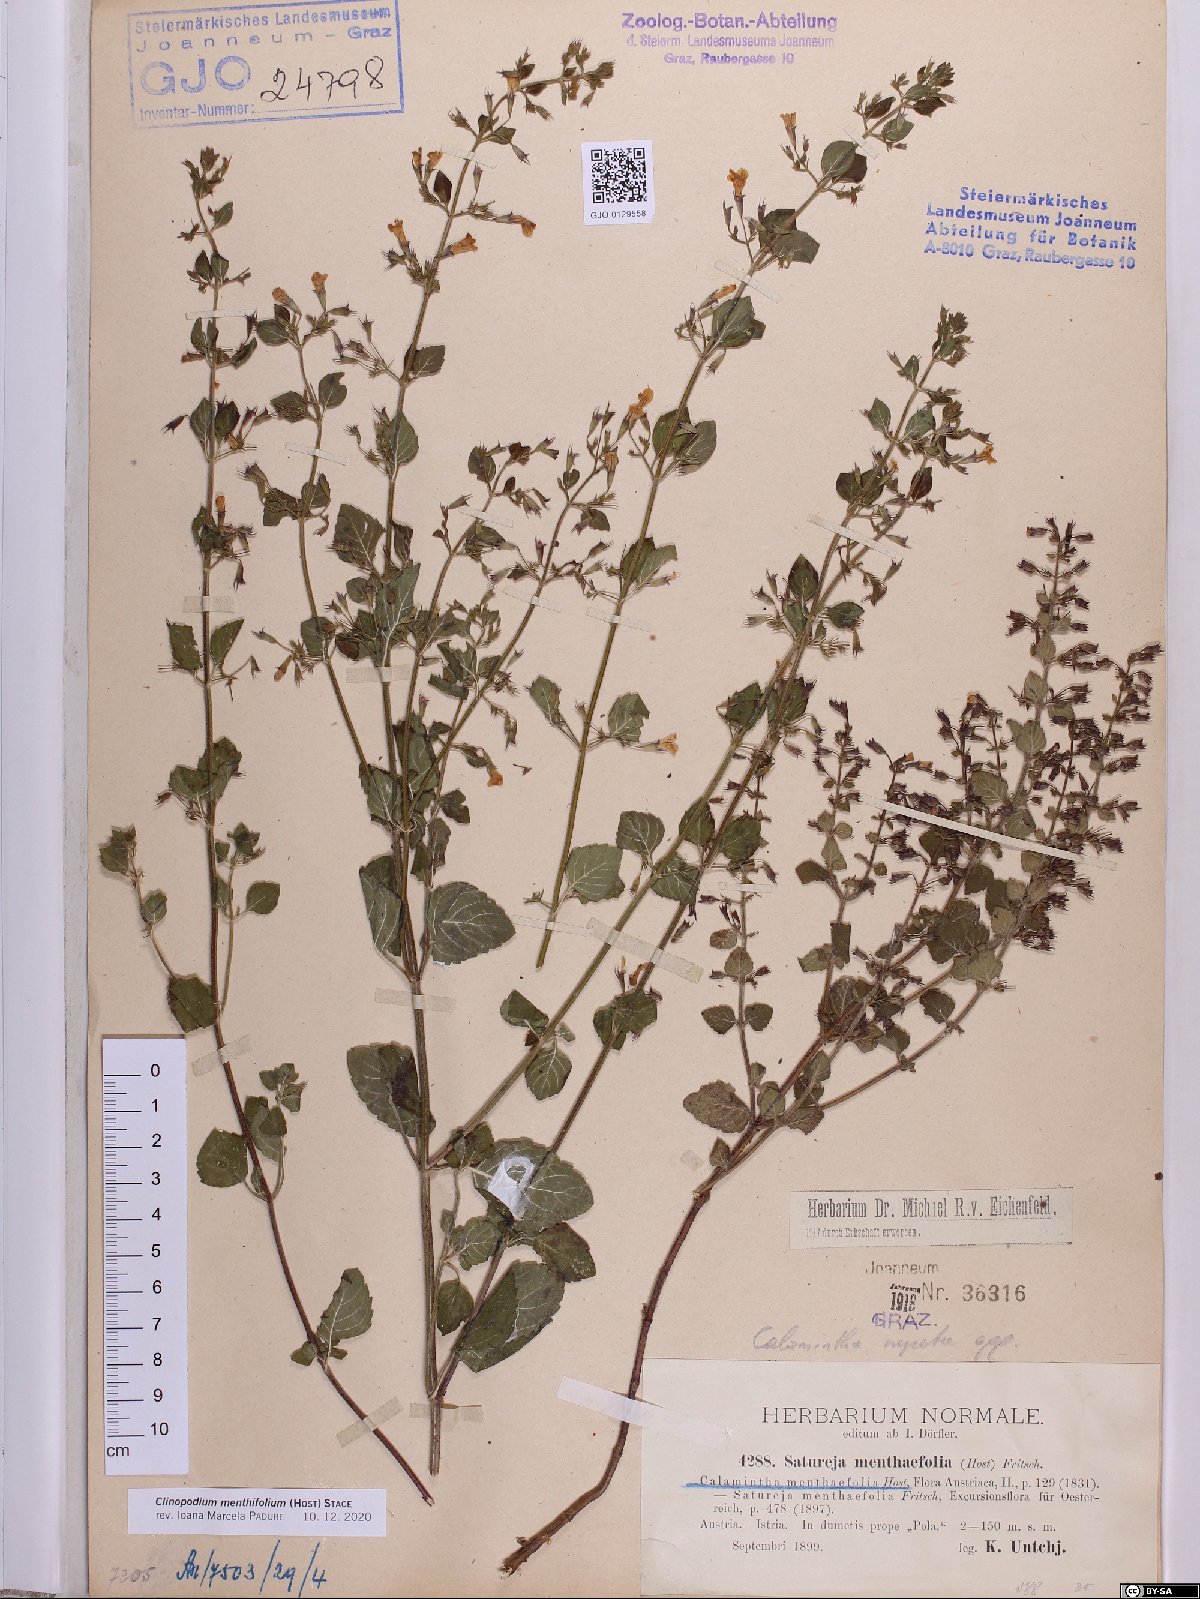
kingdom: Plantae
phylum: Tracheophyta
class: Magnoliopsida
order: Lamiales
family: Lamiaceae
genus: Clinopodium
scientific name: Clinopodium menthifolium
